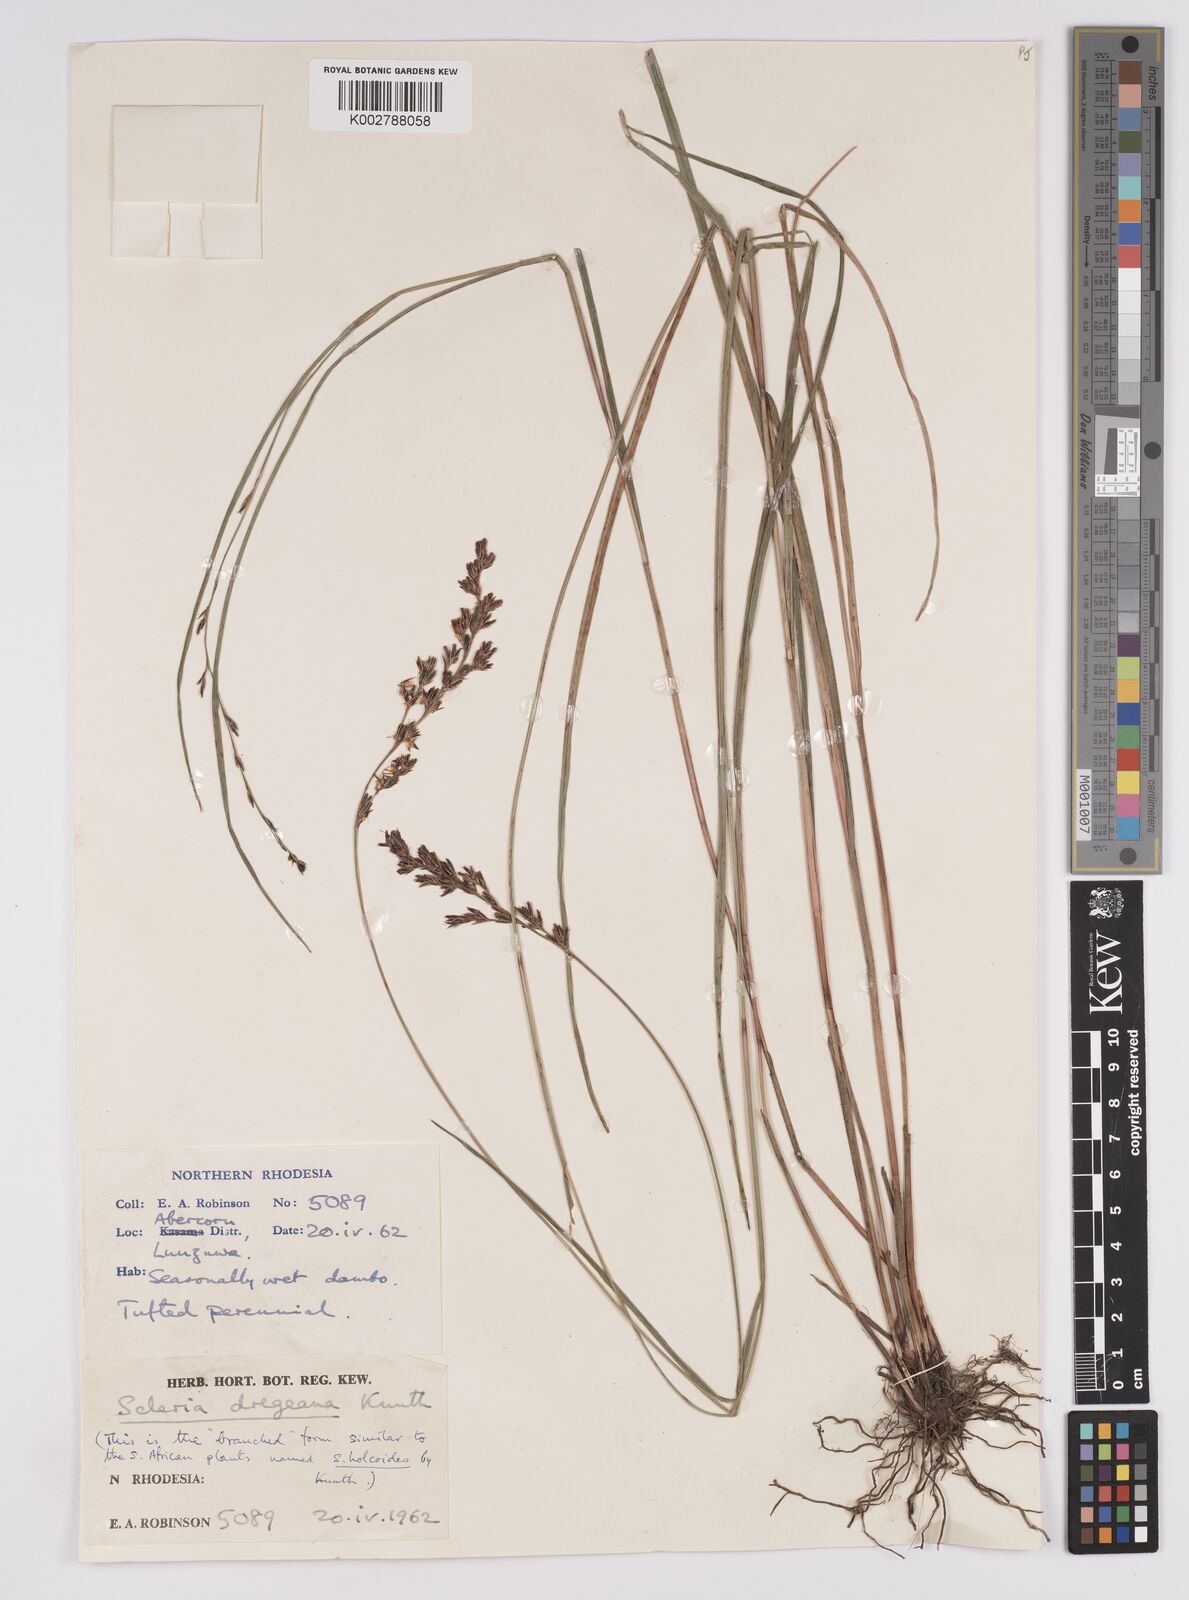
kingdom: Plantae
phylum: Tracheophyta
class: Liliopsida
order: Poales
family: Cyperaceae
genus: Scleria
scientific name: Scleria dregeana
